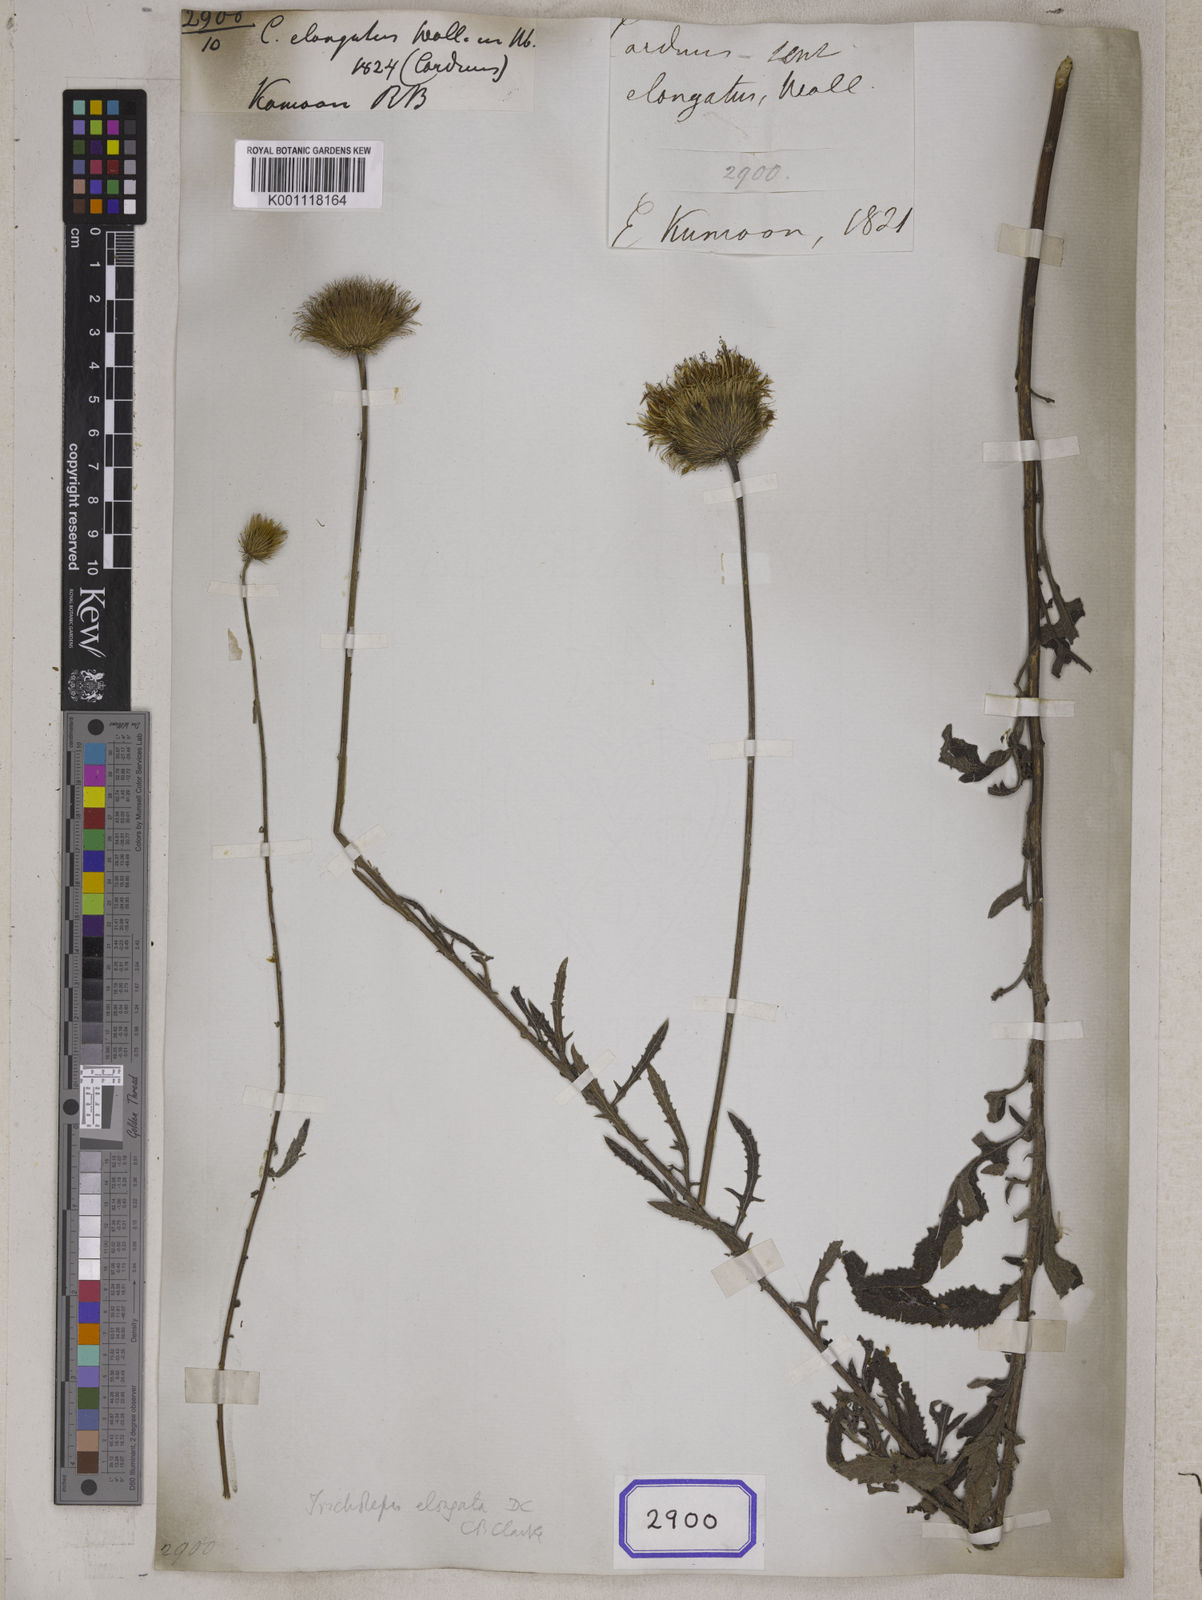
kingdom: Plantae
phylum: Tracheophyta
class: Magnoliopsida
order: Asterales
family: Asteraceae
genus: Tricholepis
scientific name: Tricholepis elongata
